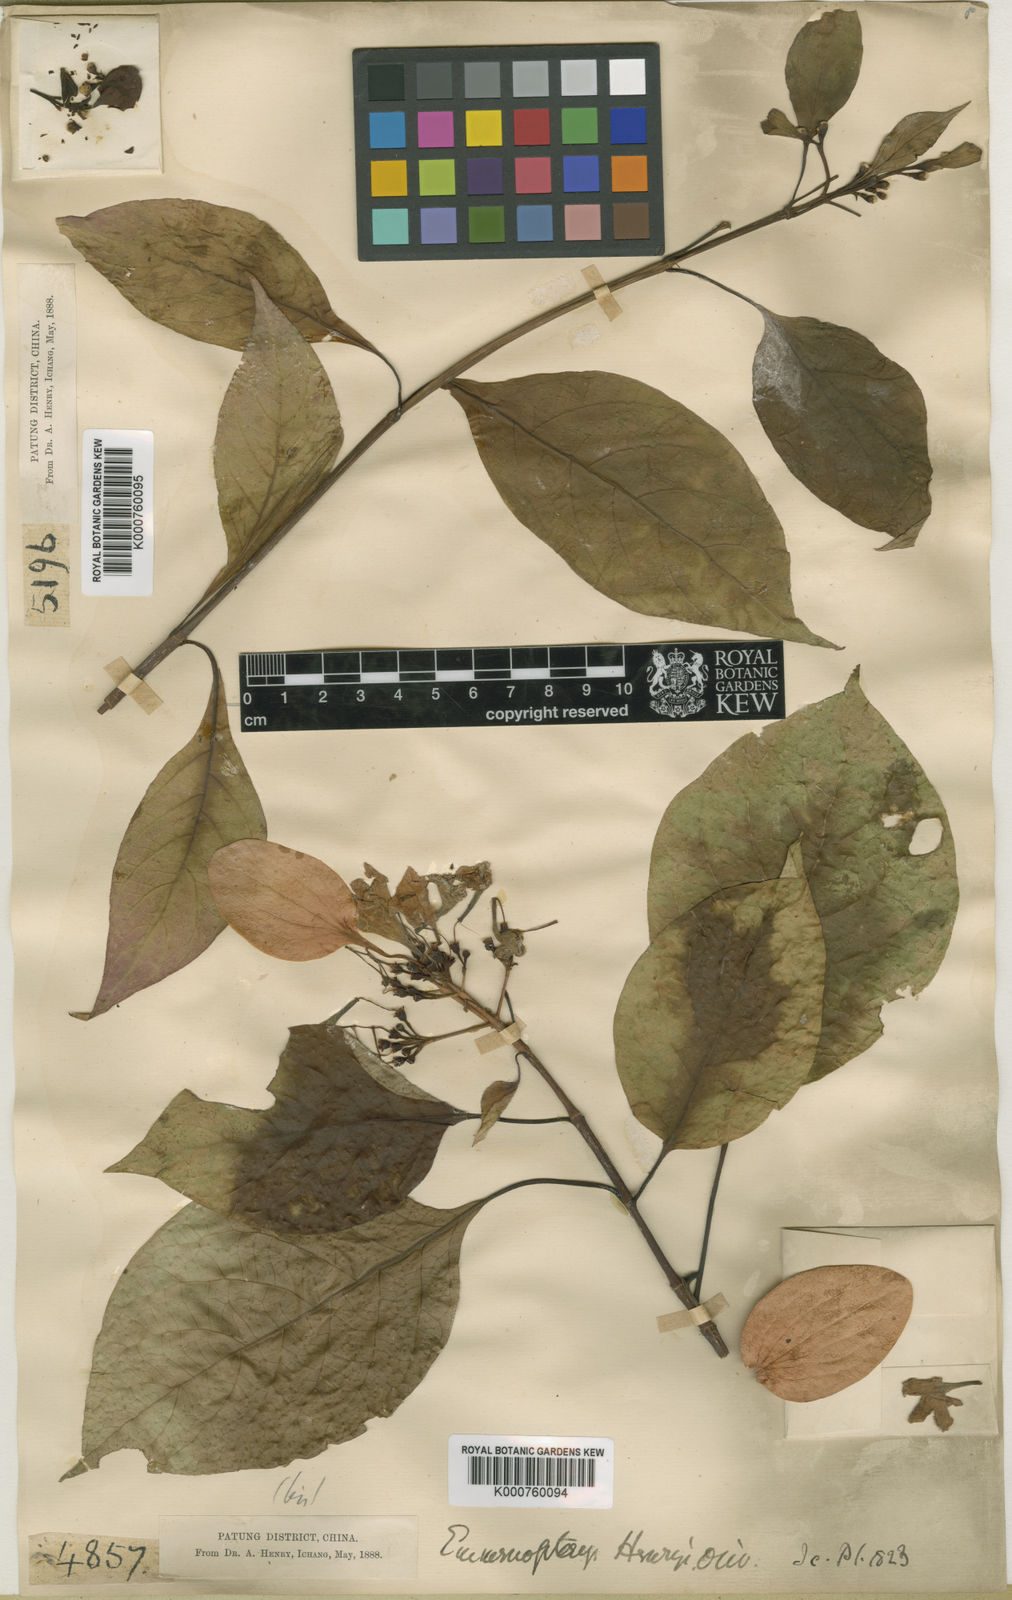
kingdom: Plantae
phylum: Tracheophyta
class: Magnoliopsida
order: Gentianales
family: Rubiaceae
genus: Emmenopterys
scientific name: Emmenopterys henryi
